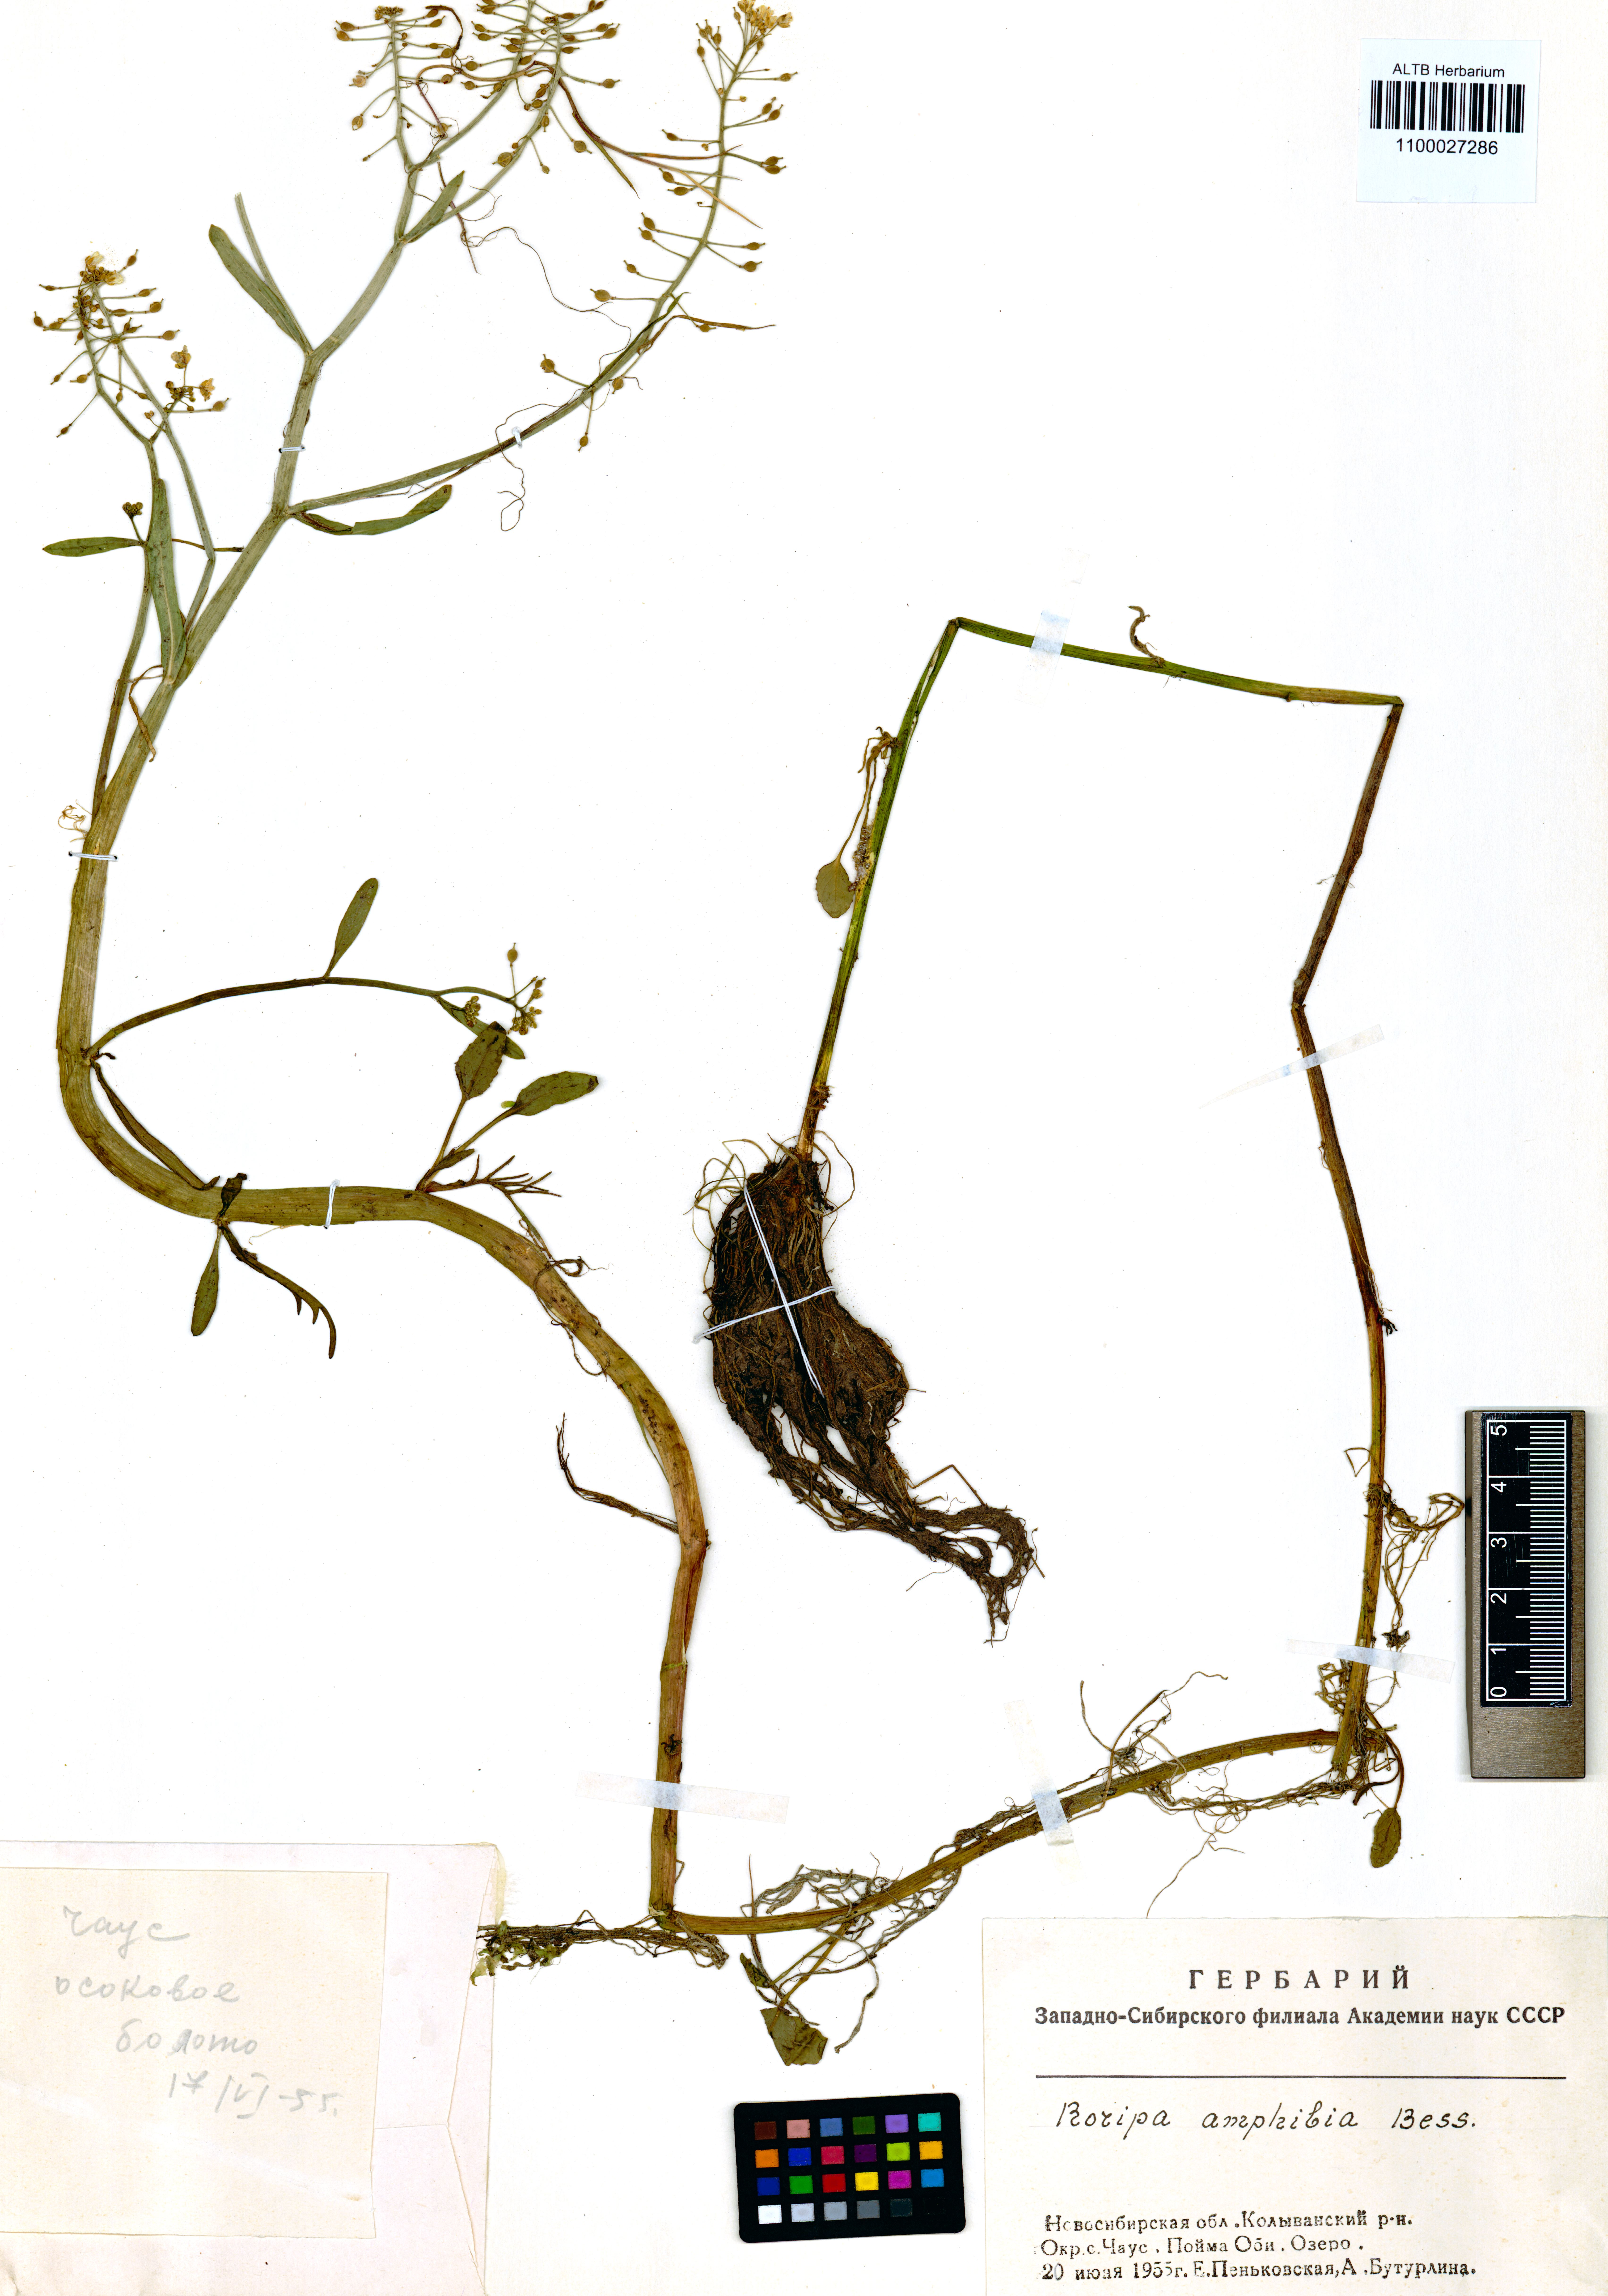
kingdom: Plantae
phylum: Tracheophyta
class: Magnoliopsida
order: Brassicales
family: Brassicaceae
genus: Rorippa
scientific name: Rorippa amphibia
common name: Great yellow-cress
